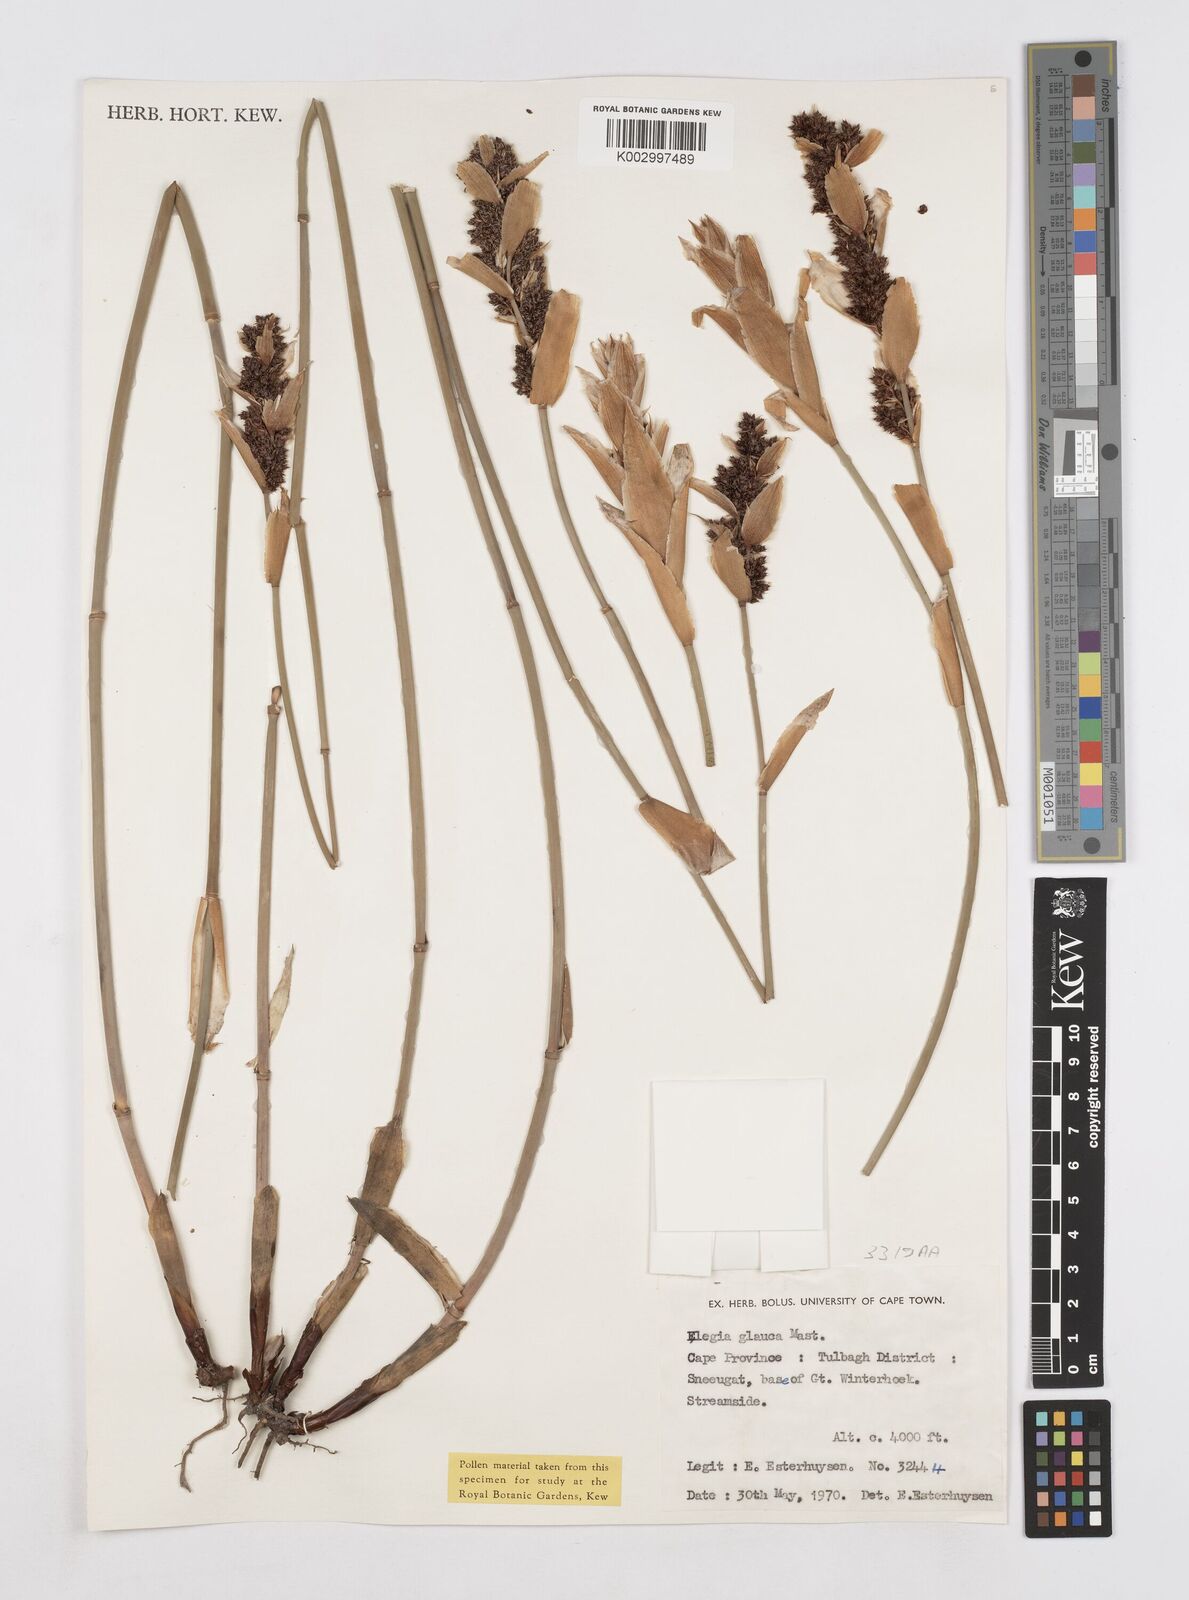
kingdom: Plantae
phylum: Tracheophyta
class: Liliopsida
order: Poales
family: Restionaceae
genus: Elegia
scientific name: Elegia asperiflora
